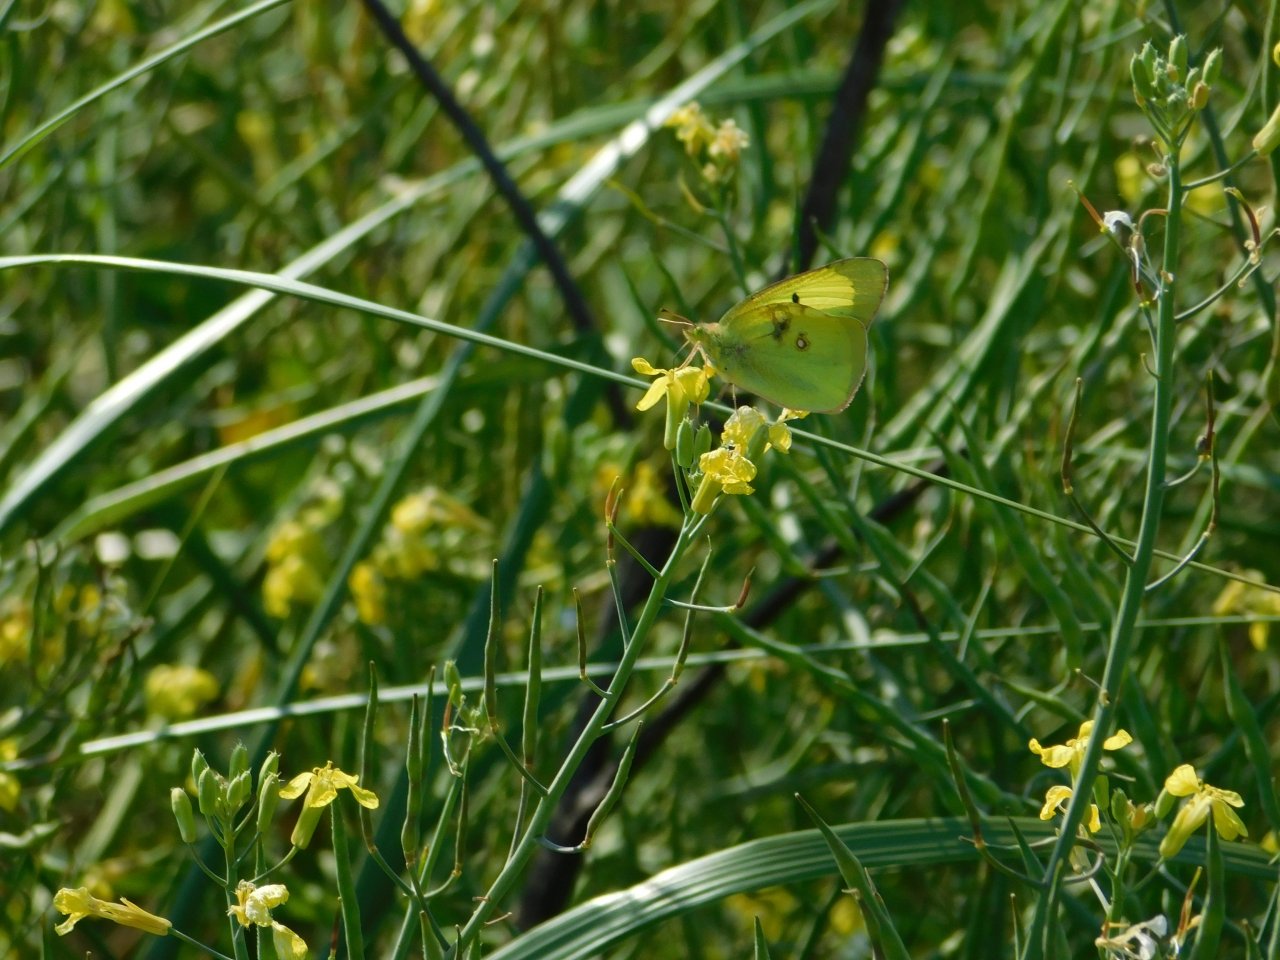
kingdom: Animalia
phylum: Arthropoda
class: Insecta
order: Lepidoptera
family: Pieridae
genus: Colias
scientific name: Colias philodice
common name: Clouded Sulphur
